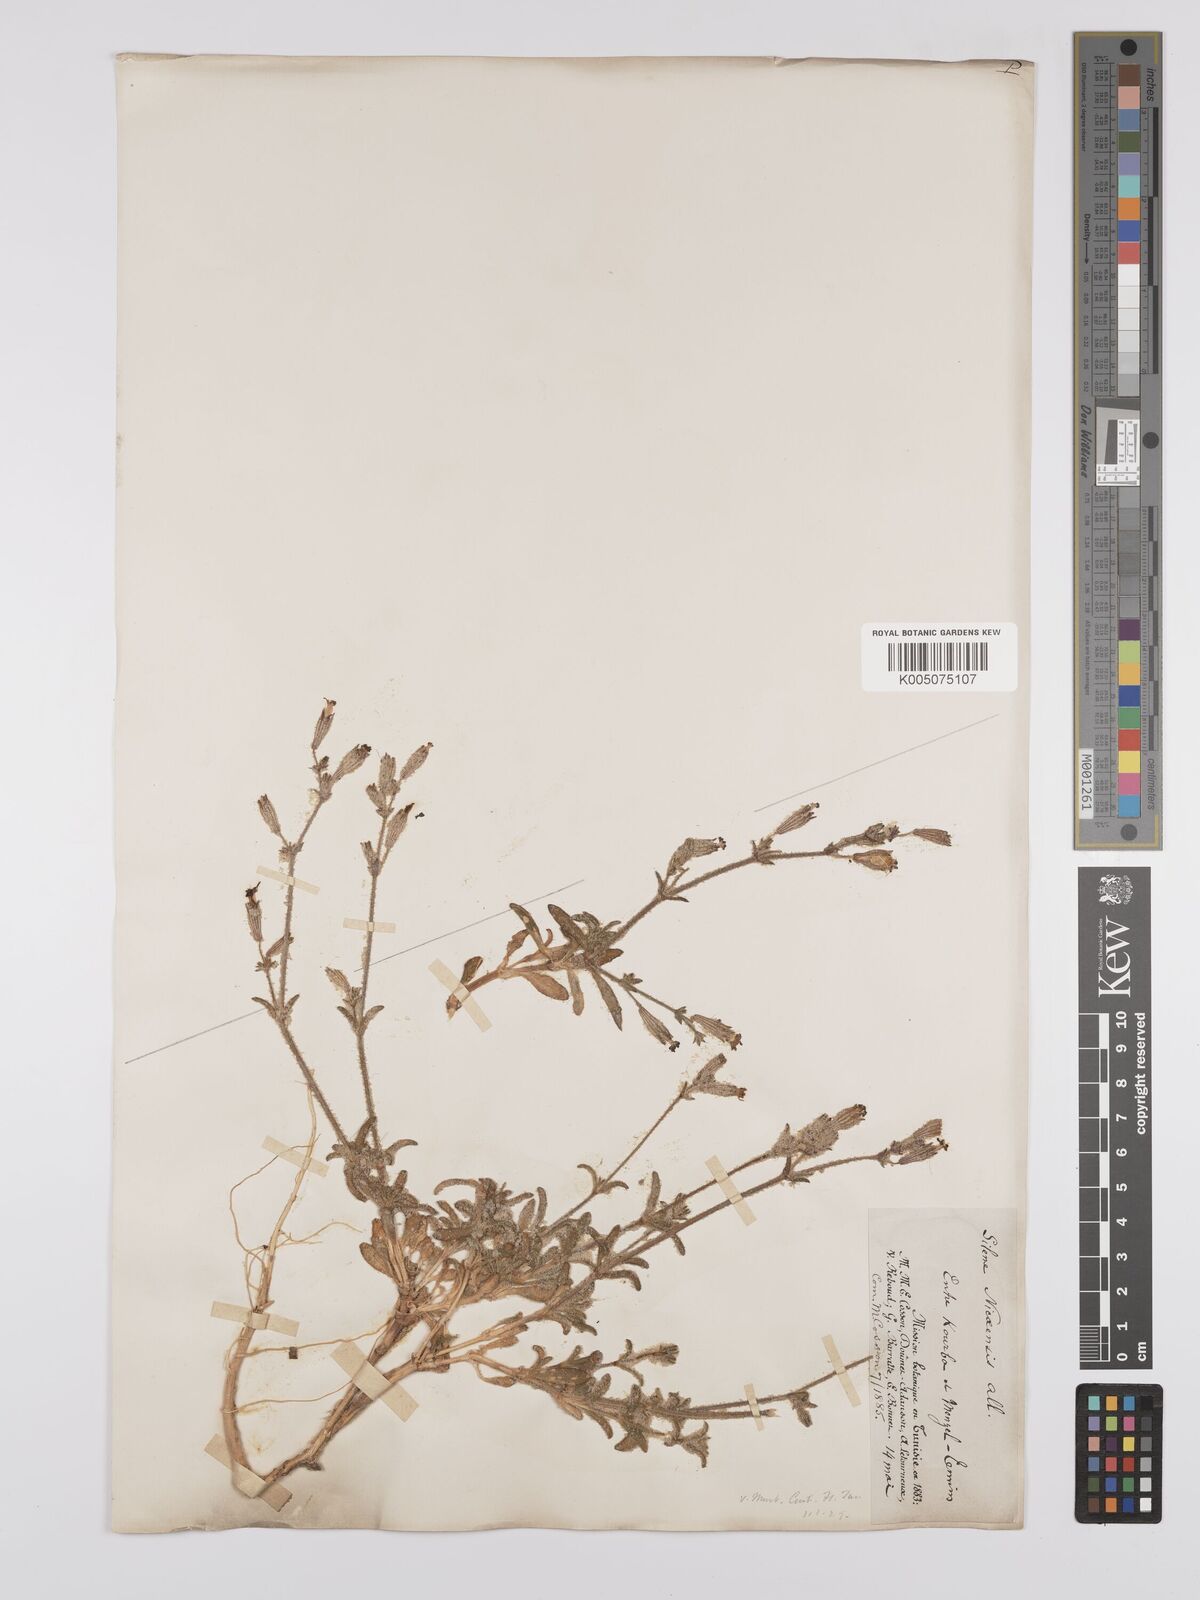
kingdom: Plantae
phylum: Tracheophyta
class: Magnoliopsida
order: Caryophyllales
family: Caryophyllaceae
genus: Silene
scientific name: Silene nicaeensis
